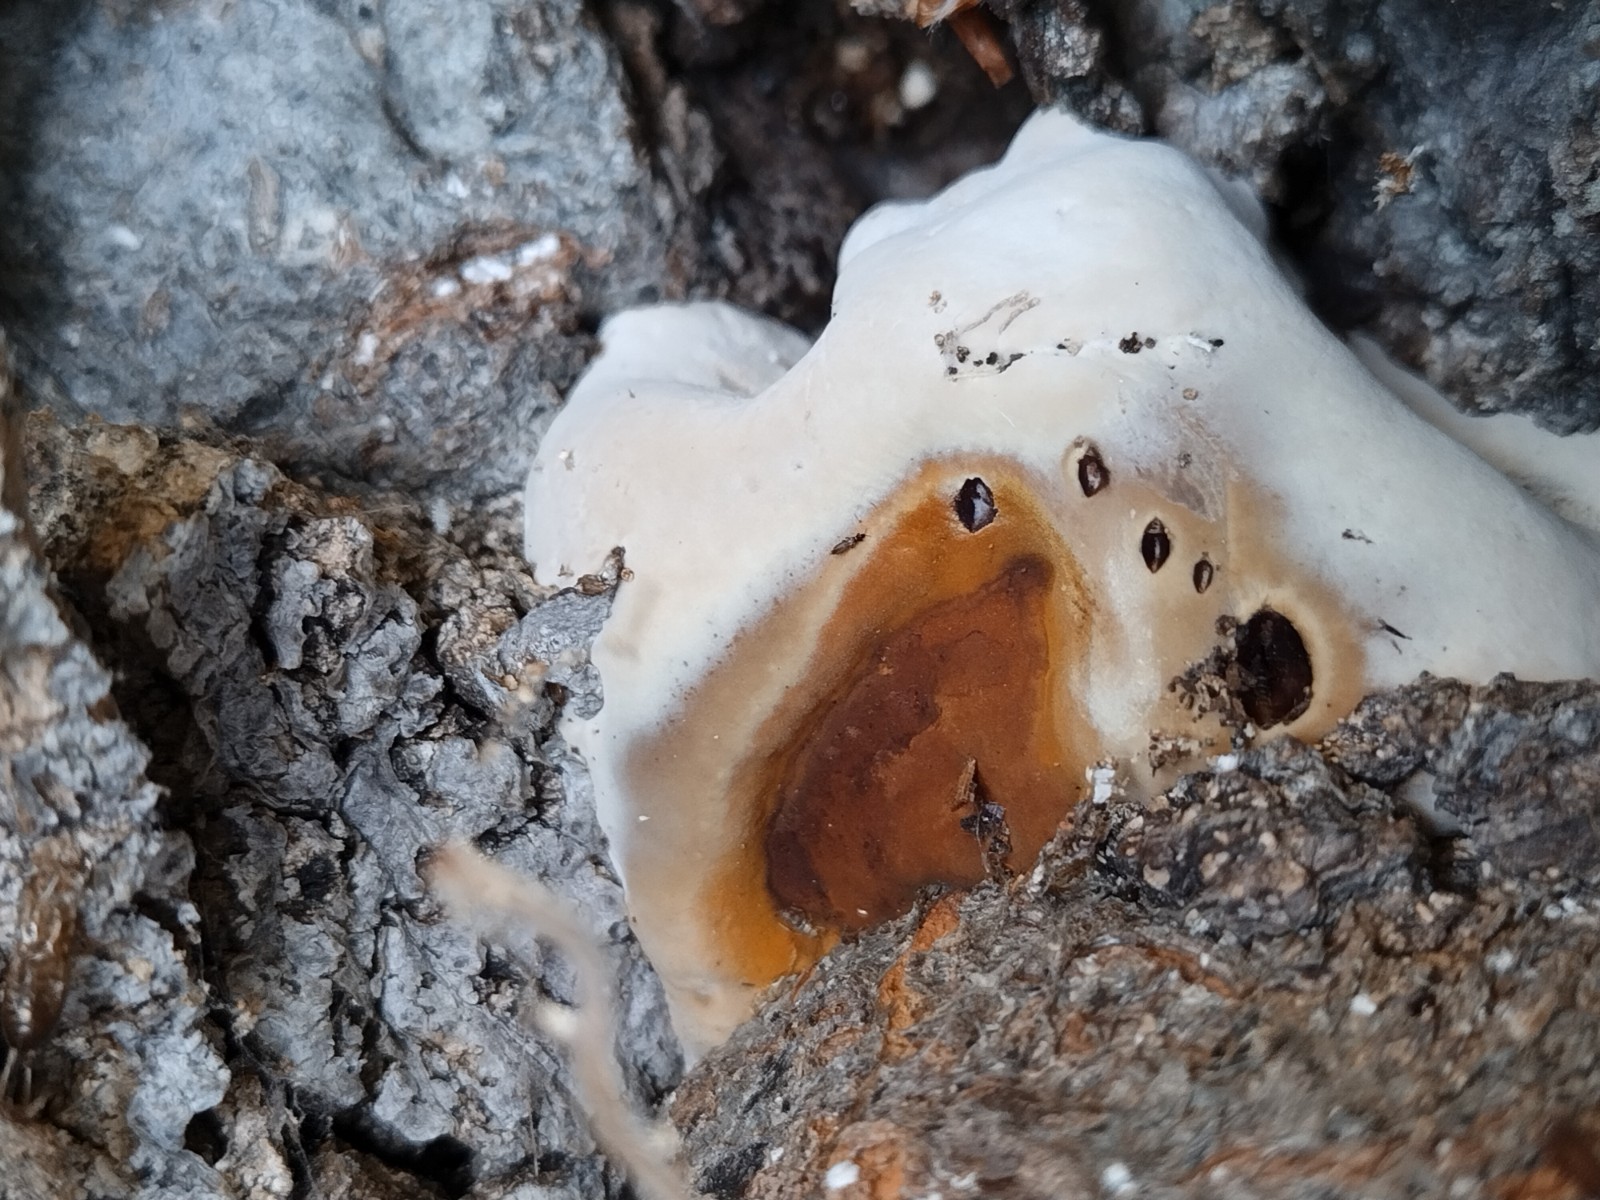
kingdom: Fungi
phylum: Basidiomycota
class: Agaricomycetes
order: Hymenochaetales
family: Hymenochaetaceae
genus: Inonotus
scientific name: Inonotus cuticularis
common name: kroghåret spejlporesvamp
